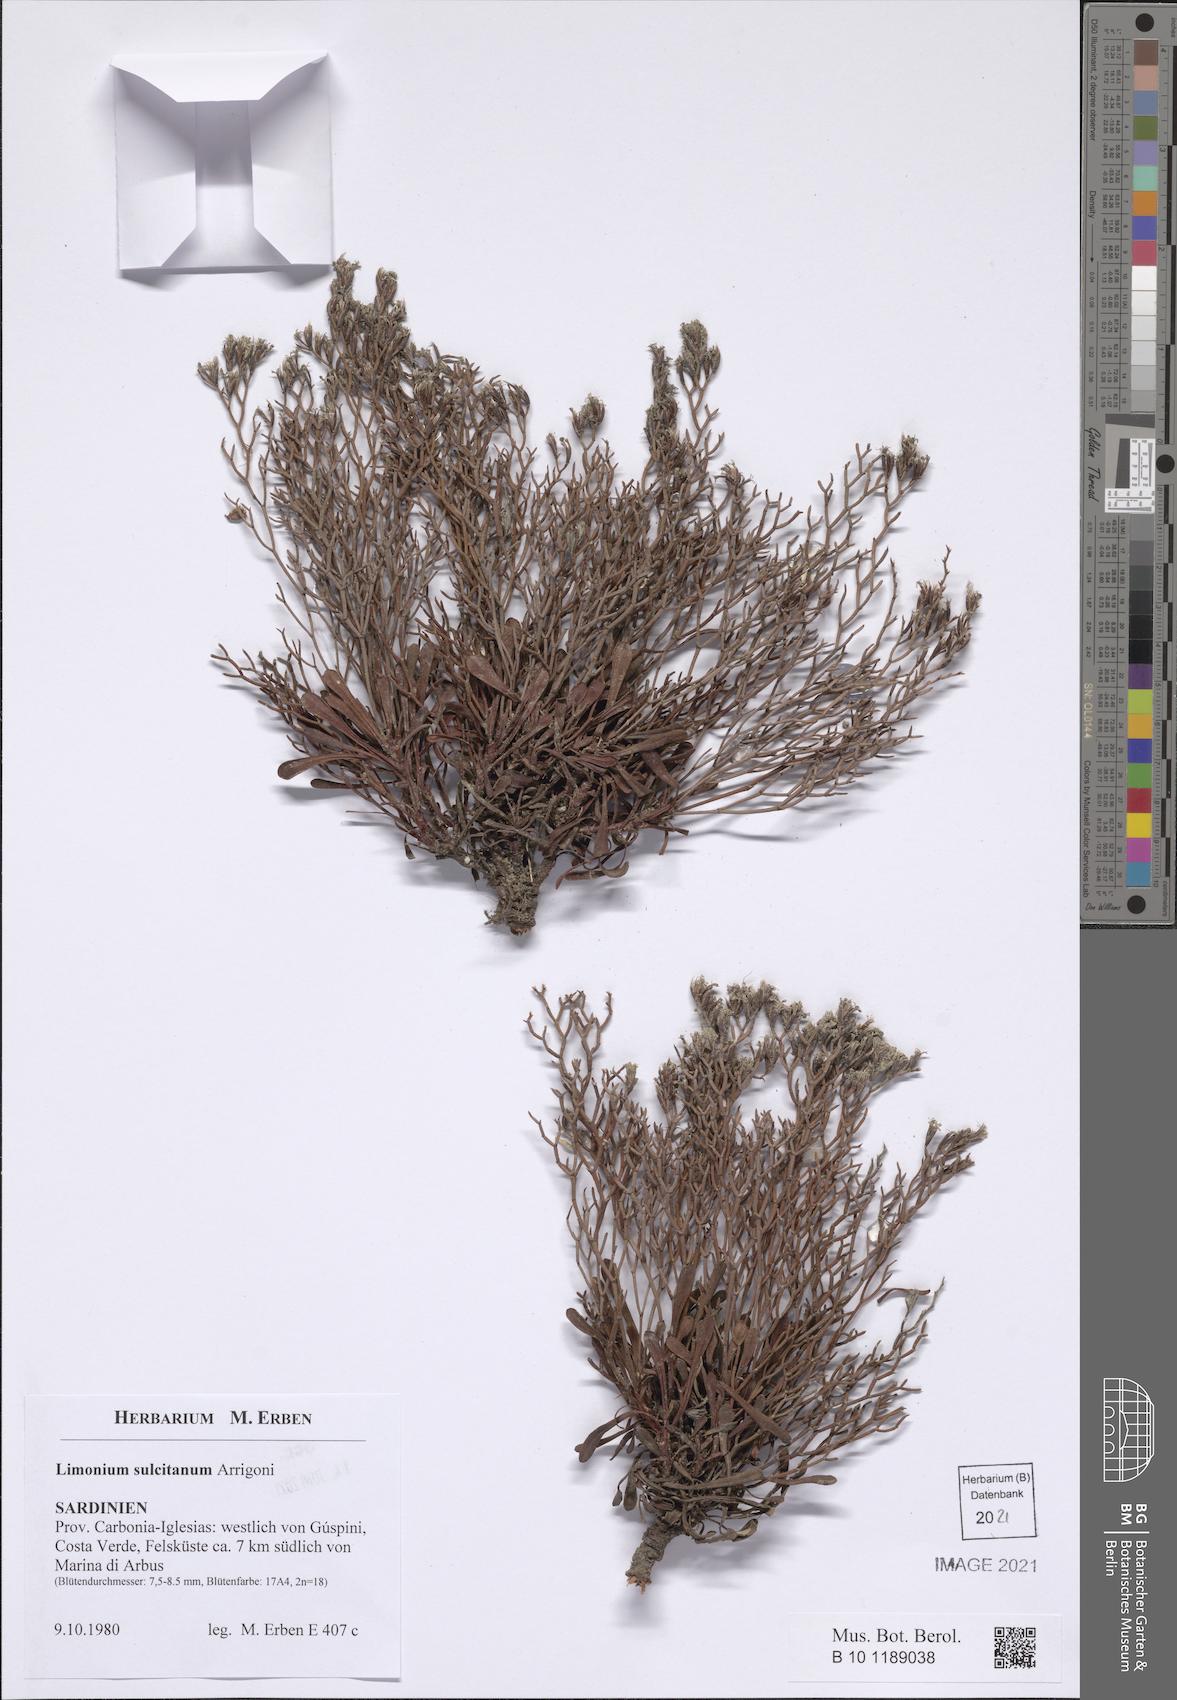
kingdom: Plantae
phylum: Tracheophyta
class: Magnoliopsida
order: Caryophyllales
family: Plumbaginaceae
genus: Limonium
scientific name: Limonium sulcitanum
